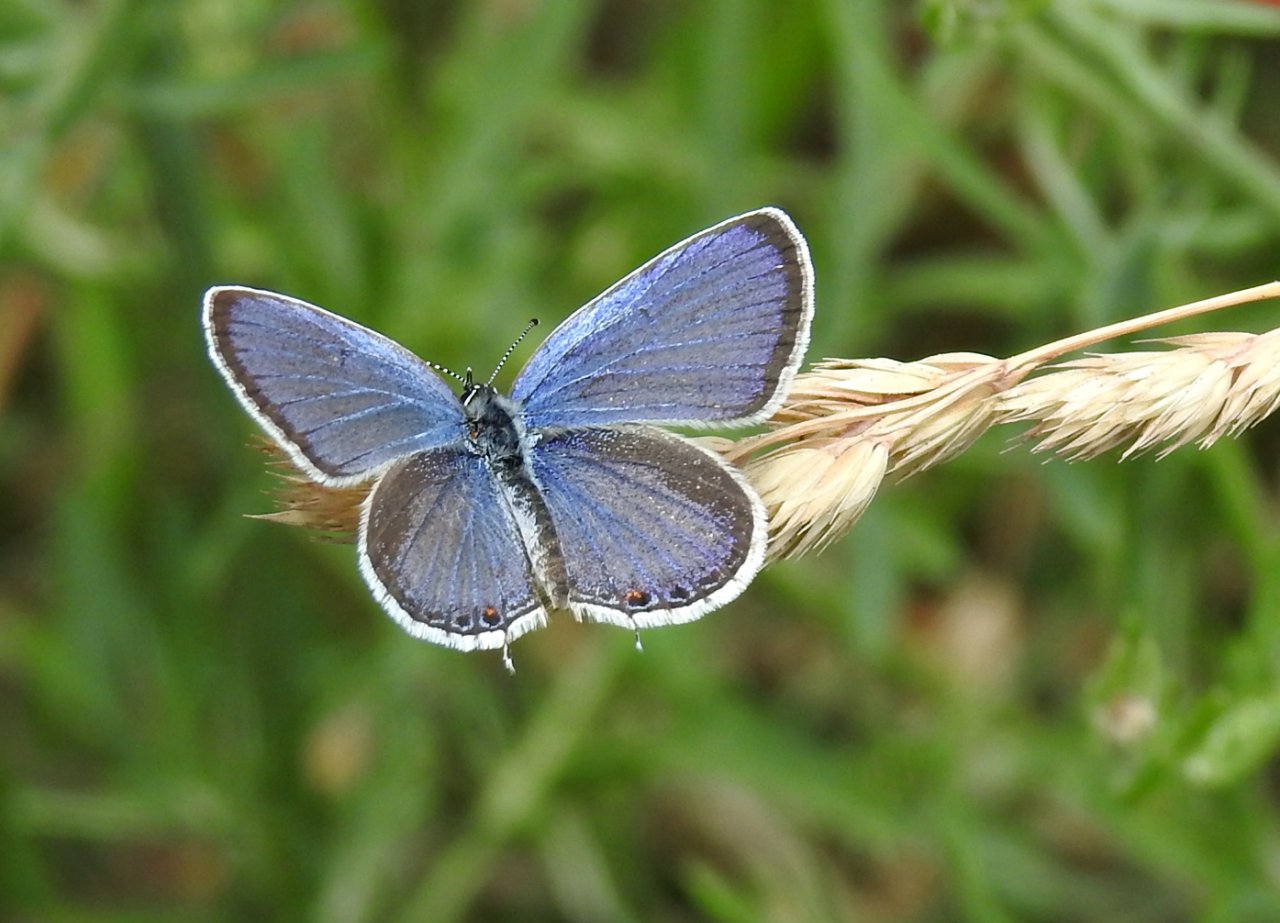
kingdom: Animalia
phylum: Arthropoda
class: Insecta
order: Lepidoptera
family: Lycaenidae
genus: Elkalyce
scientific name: Elkalyce comyntas
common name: Eastern Tailed-Blue
